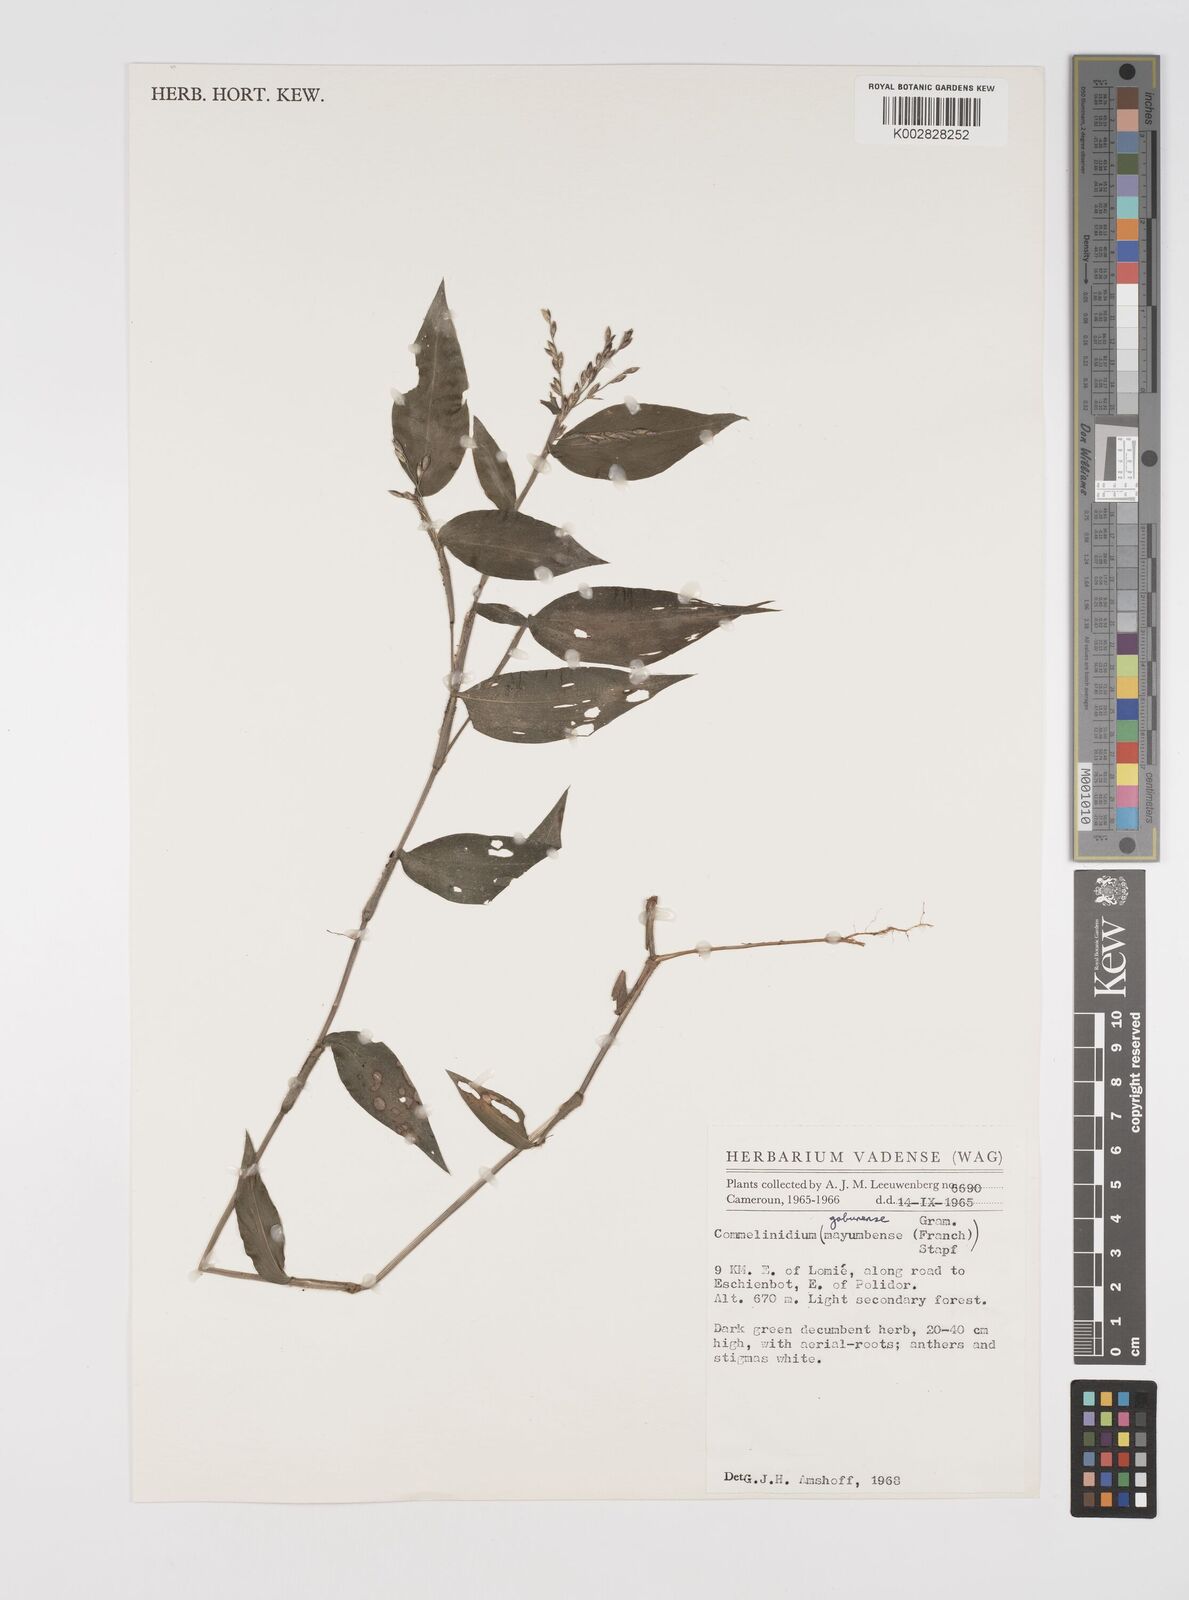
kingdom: Plantae
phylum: Tracheophyta
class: Liliopsida
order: Poales
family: Poaceae
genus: Acroceras
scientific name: Acroceras gabunense
